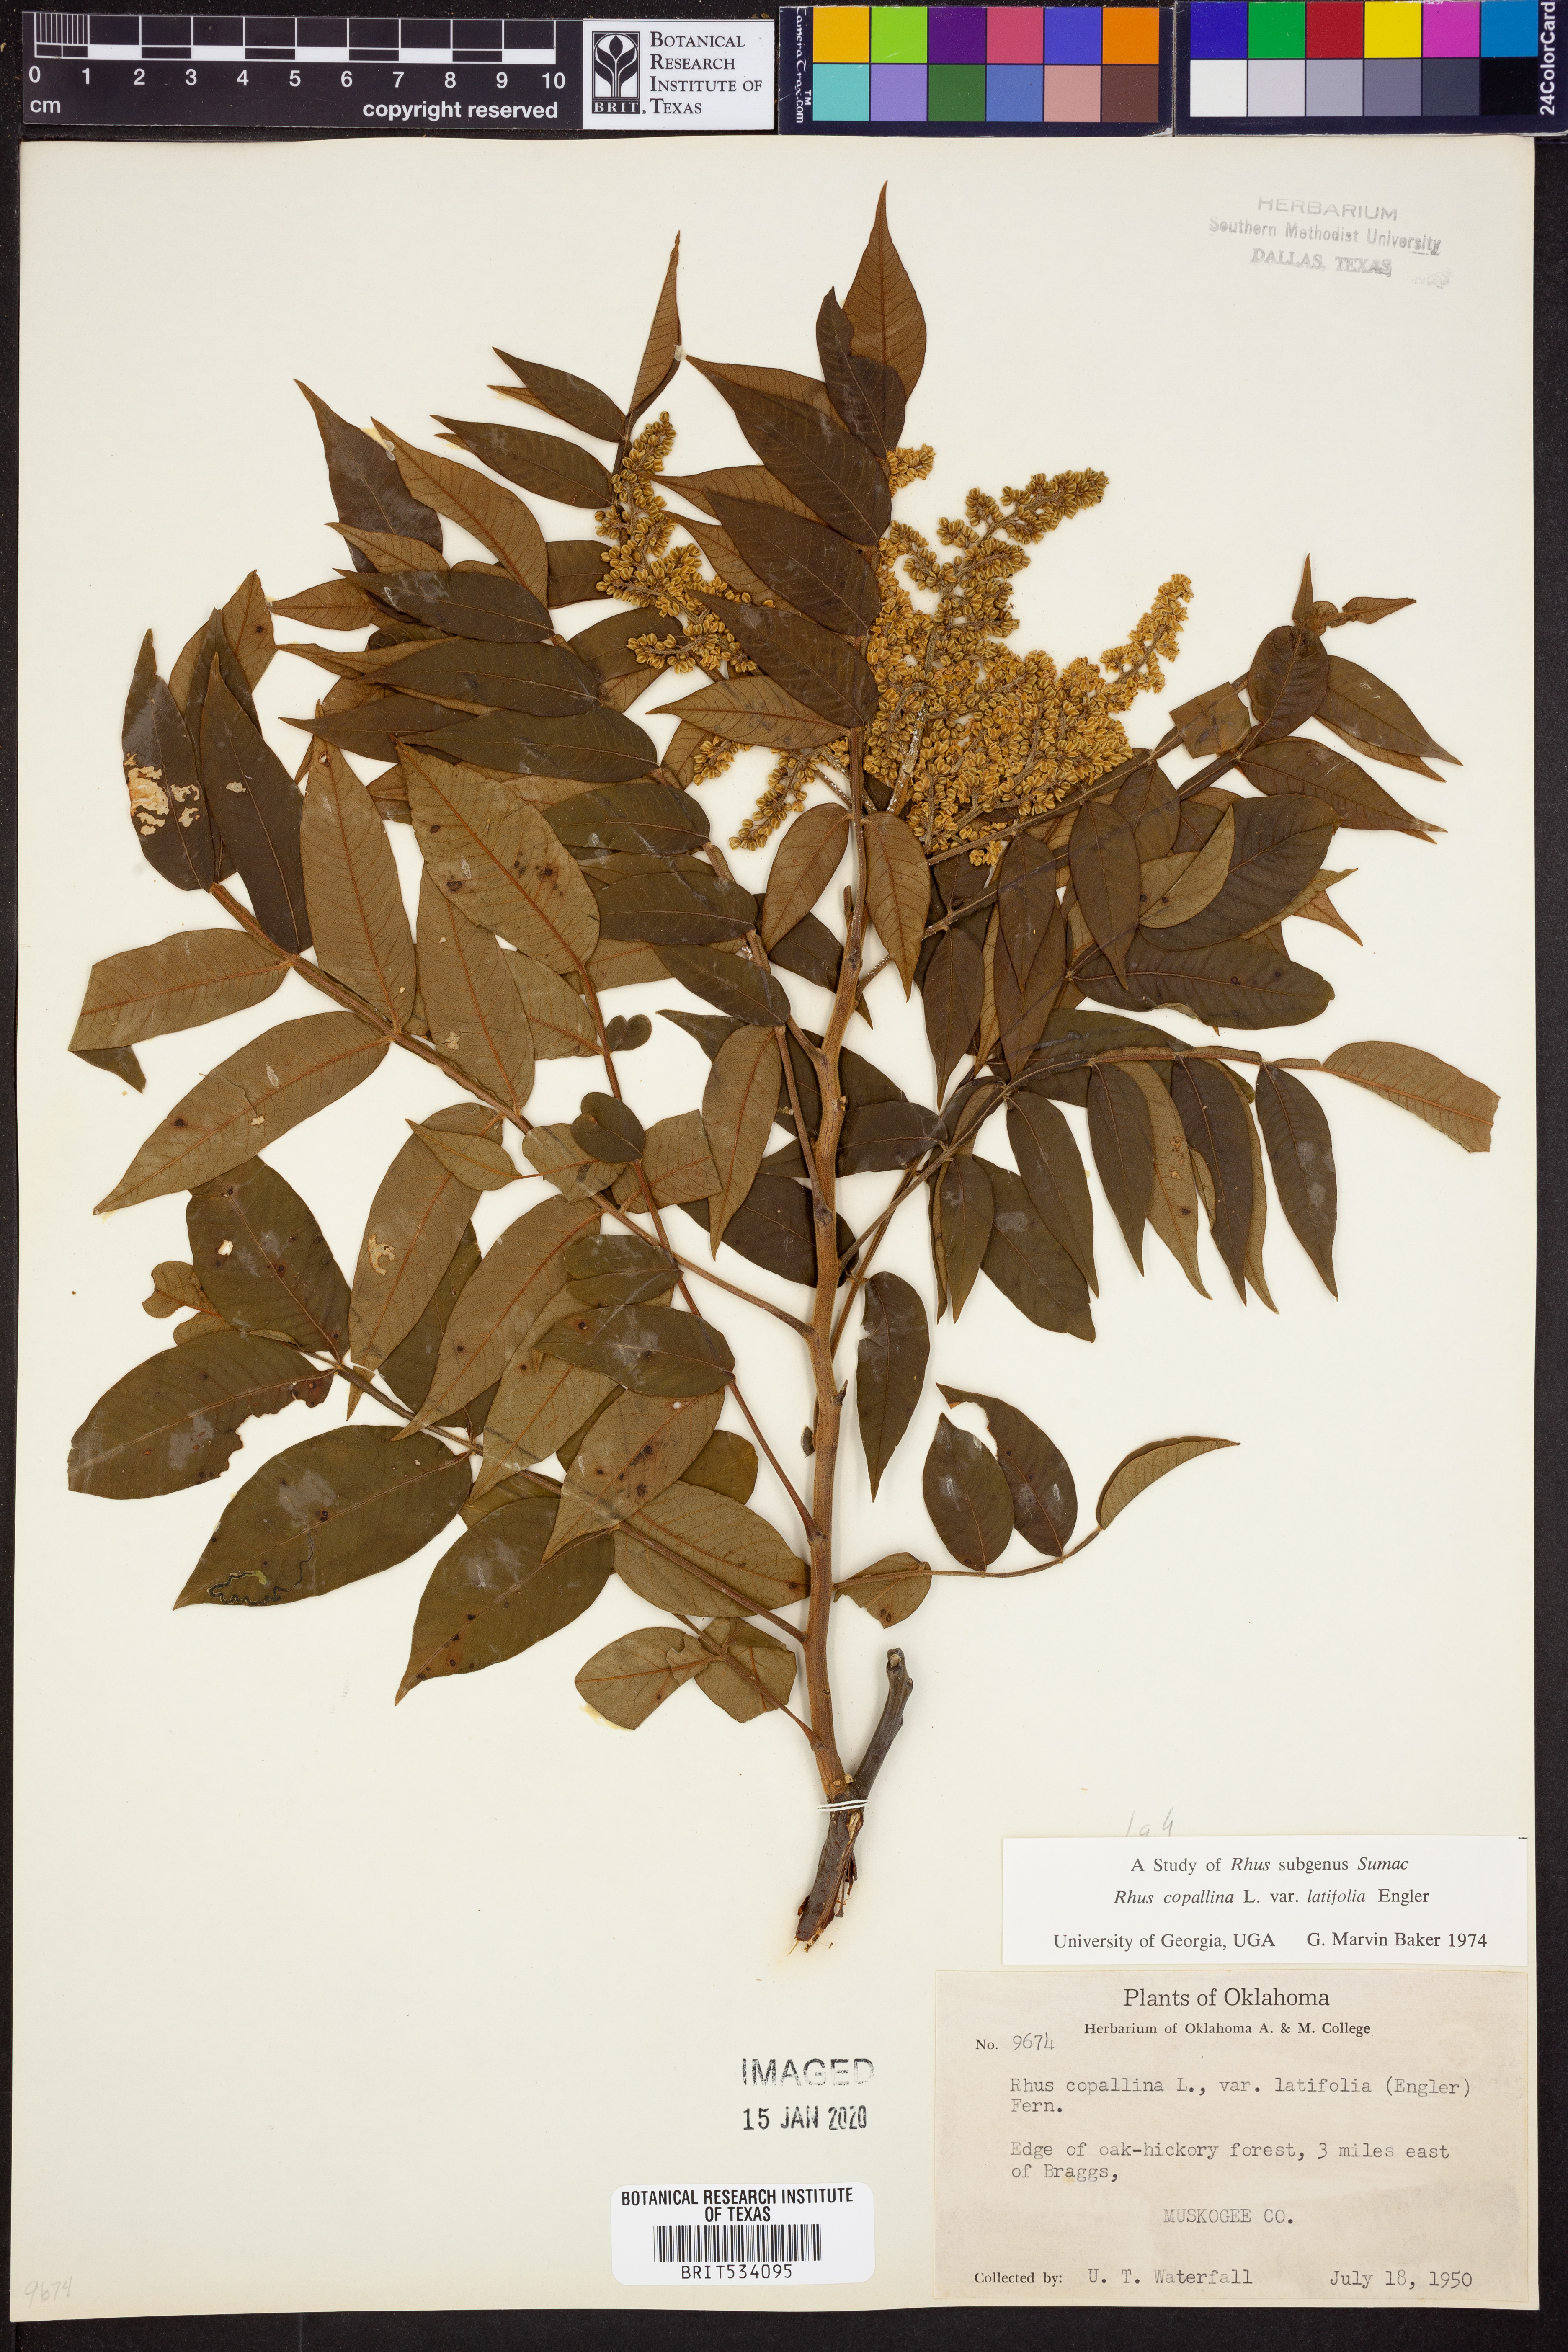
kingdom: Plantae
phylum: Tracheophyta
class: Magnoliopsida
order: Sapindales
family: Anacardiaceae
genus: Rhus
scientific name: Rhus copallina
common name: Shining sumac
